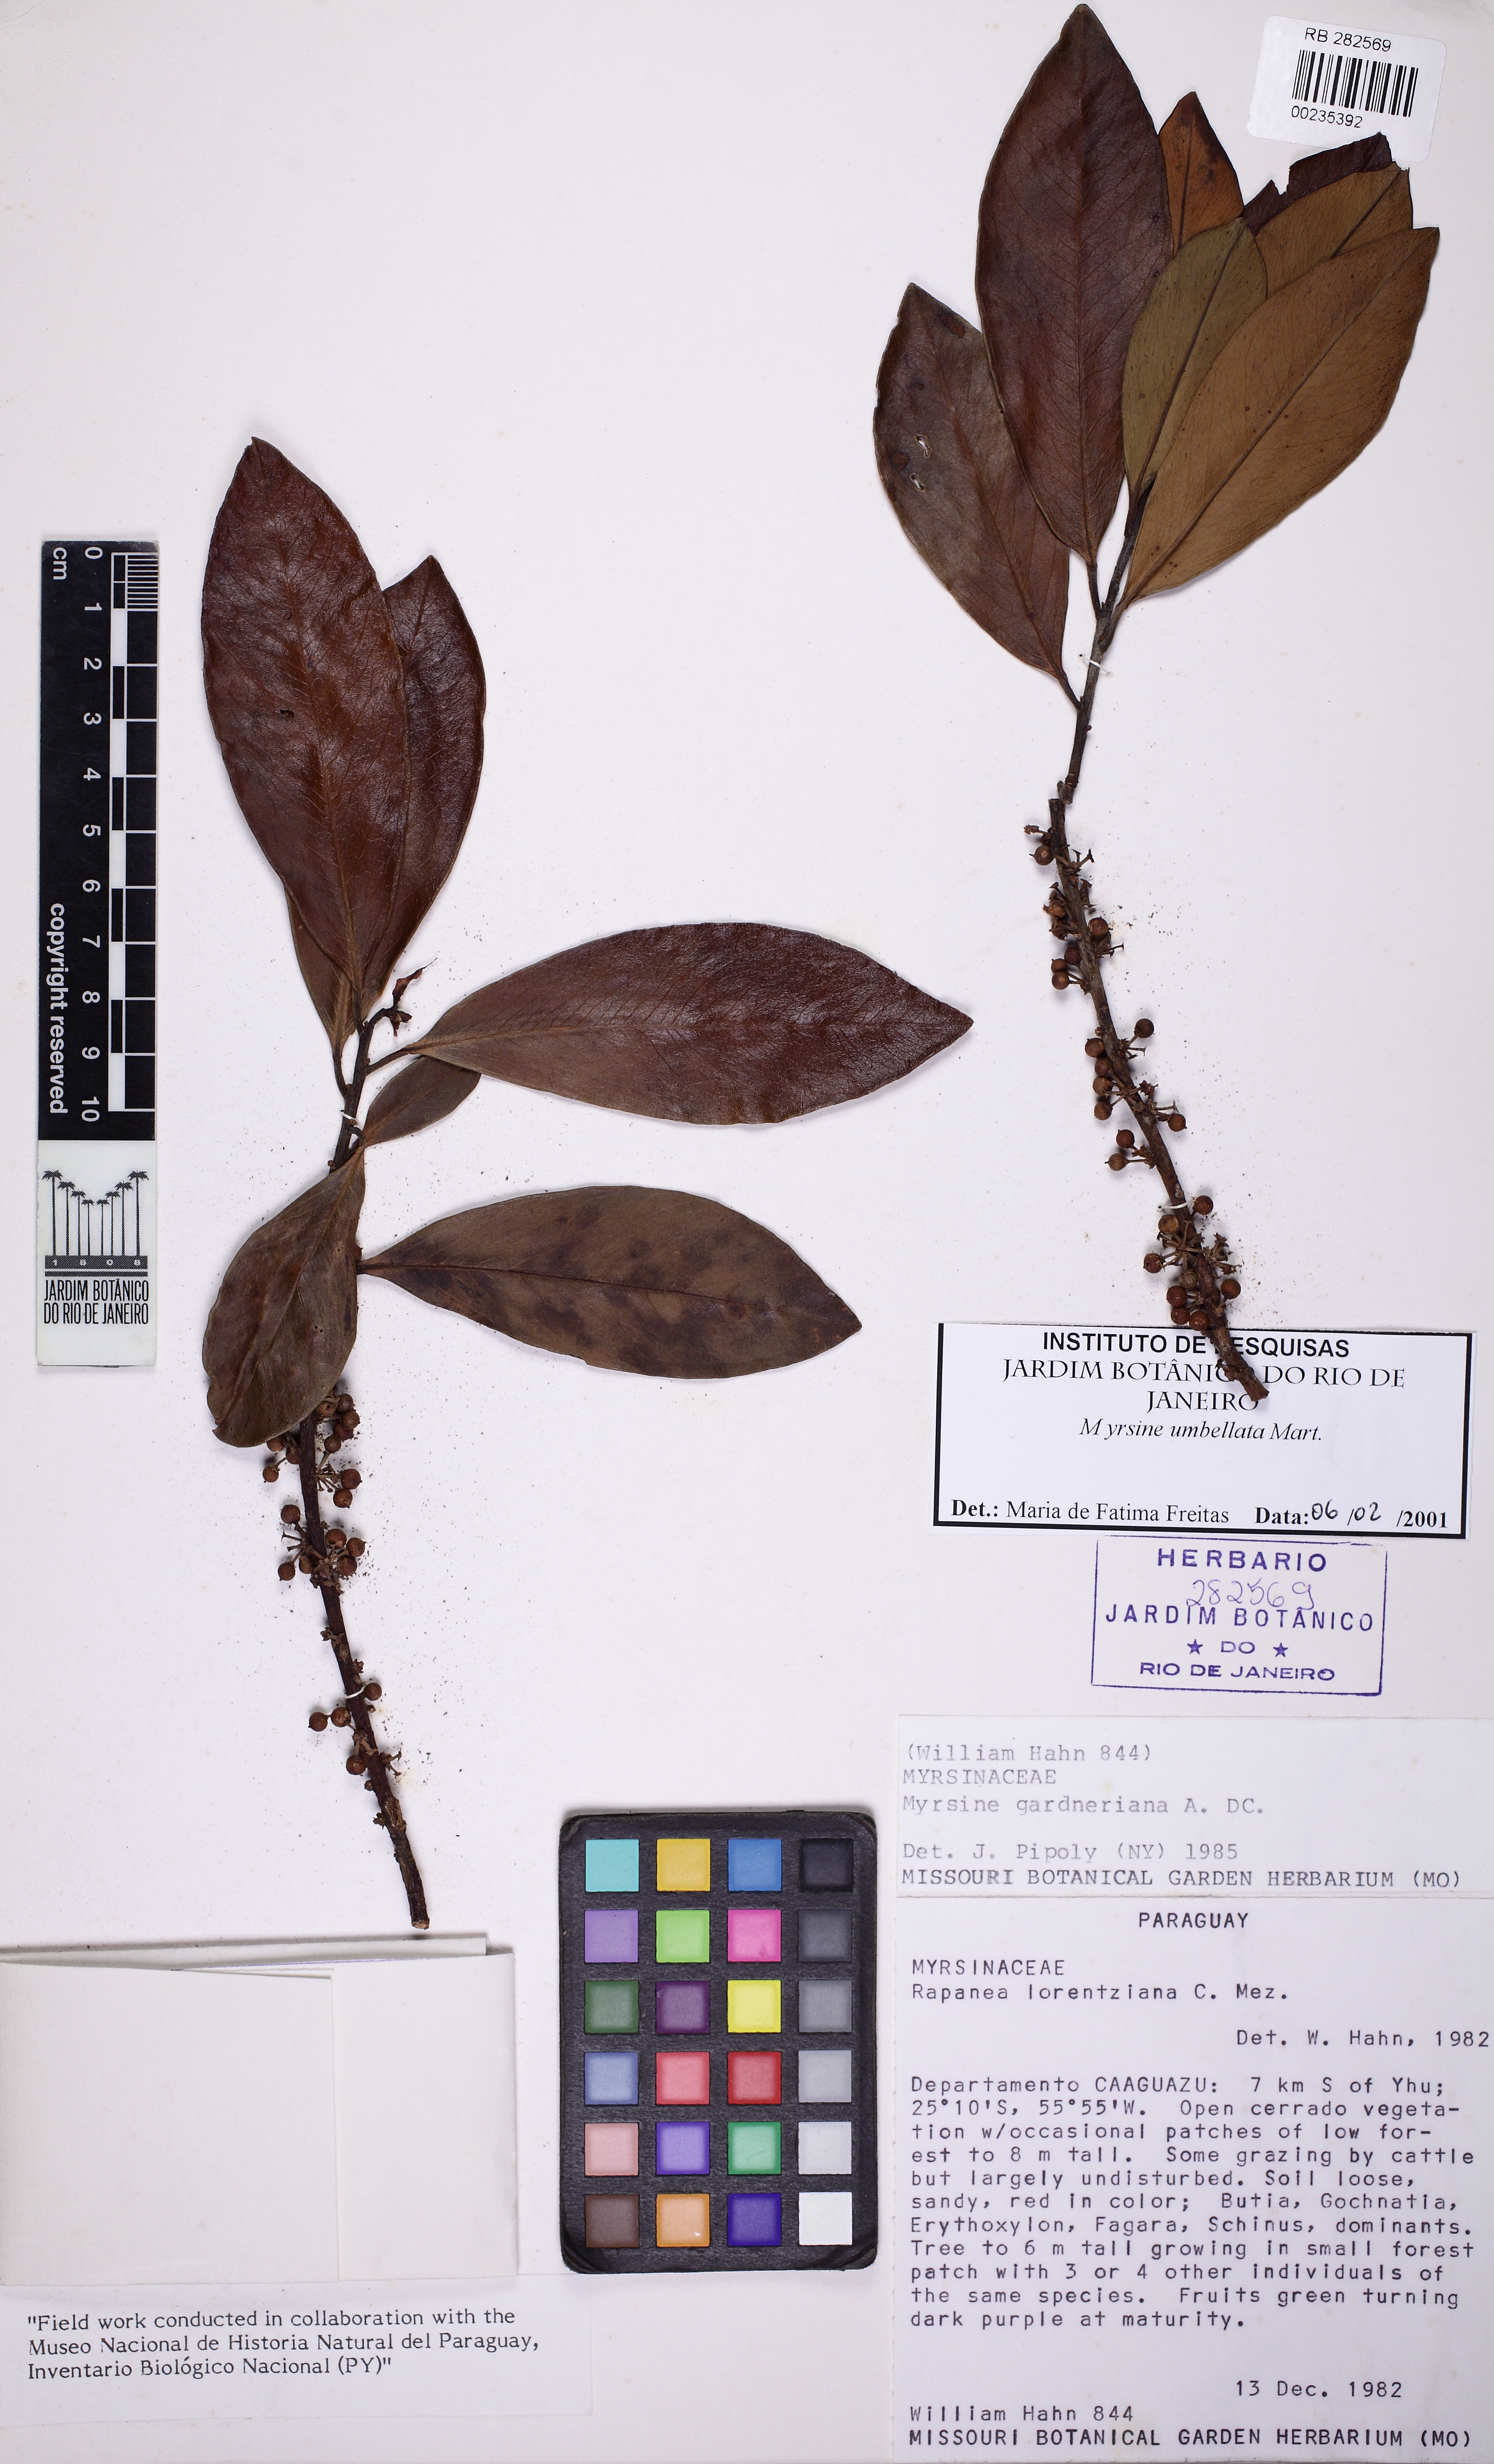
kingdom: Plantae
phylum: Tracheophyta
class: Magnoliopsida
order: Ericales
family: Primulaceae
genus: Myrsine
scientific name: Myrsine umbellata
